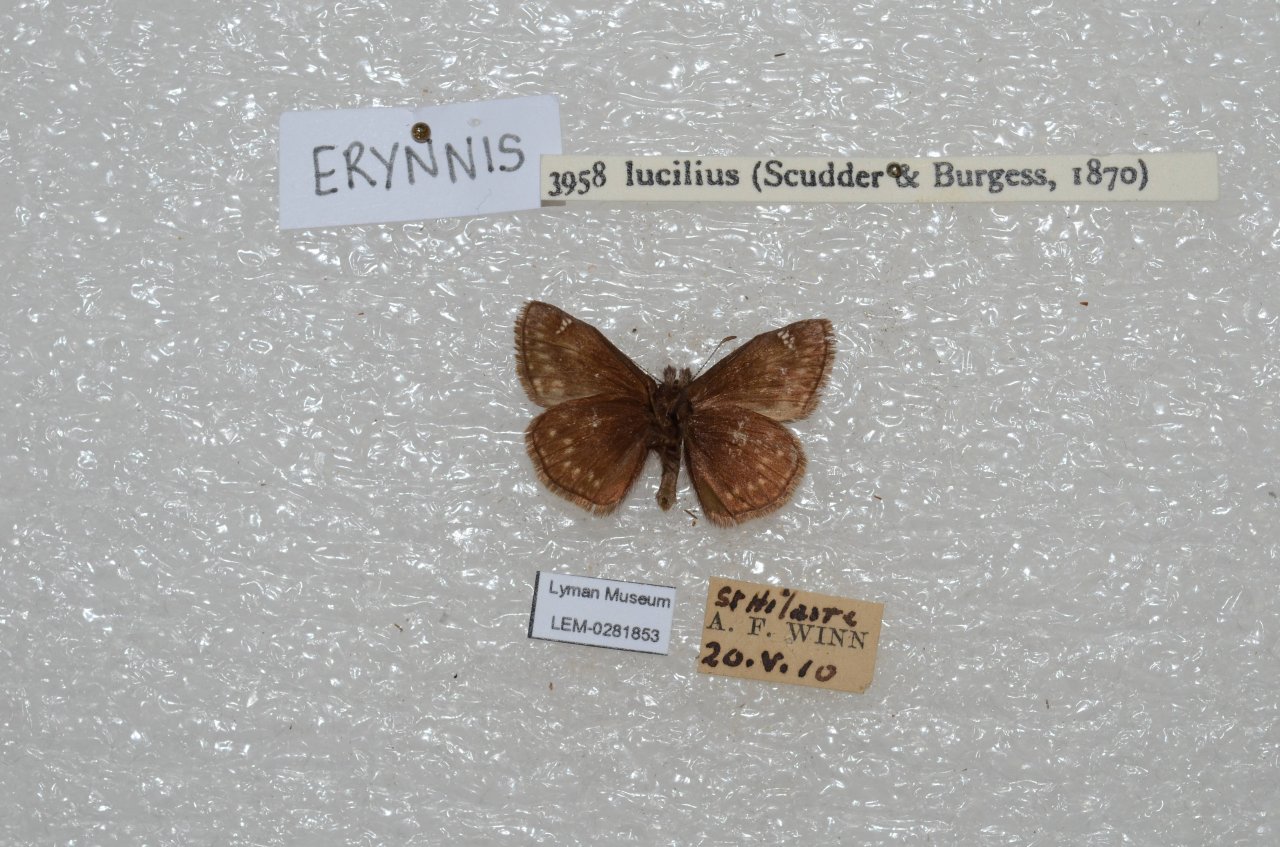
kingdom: Animalia
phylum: Arthropoda
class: Insecta
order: Lepidoptera
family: Hesperiidae
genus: Gesta
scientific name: Gesta
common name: Columbine Duskywing
